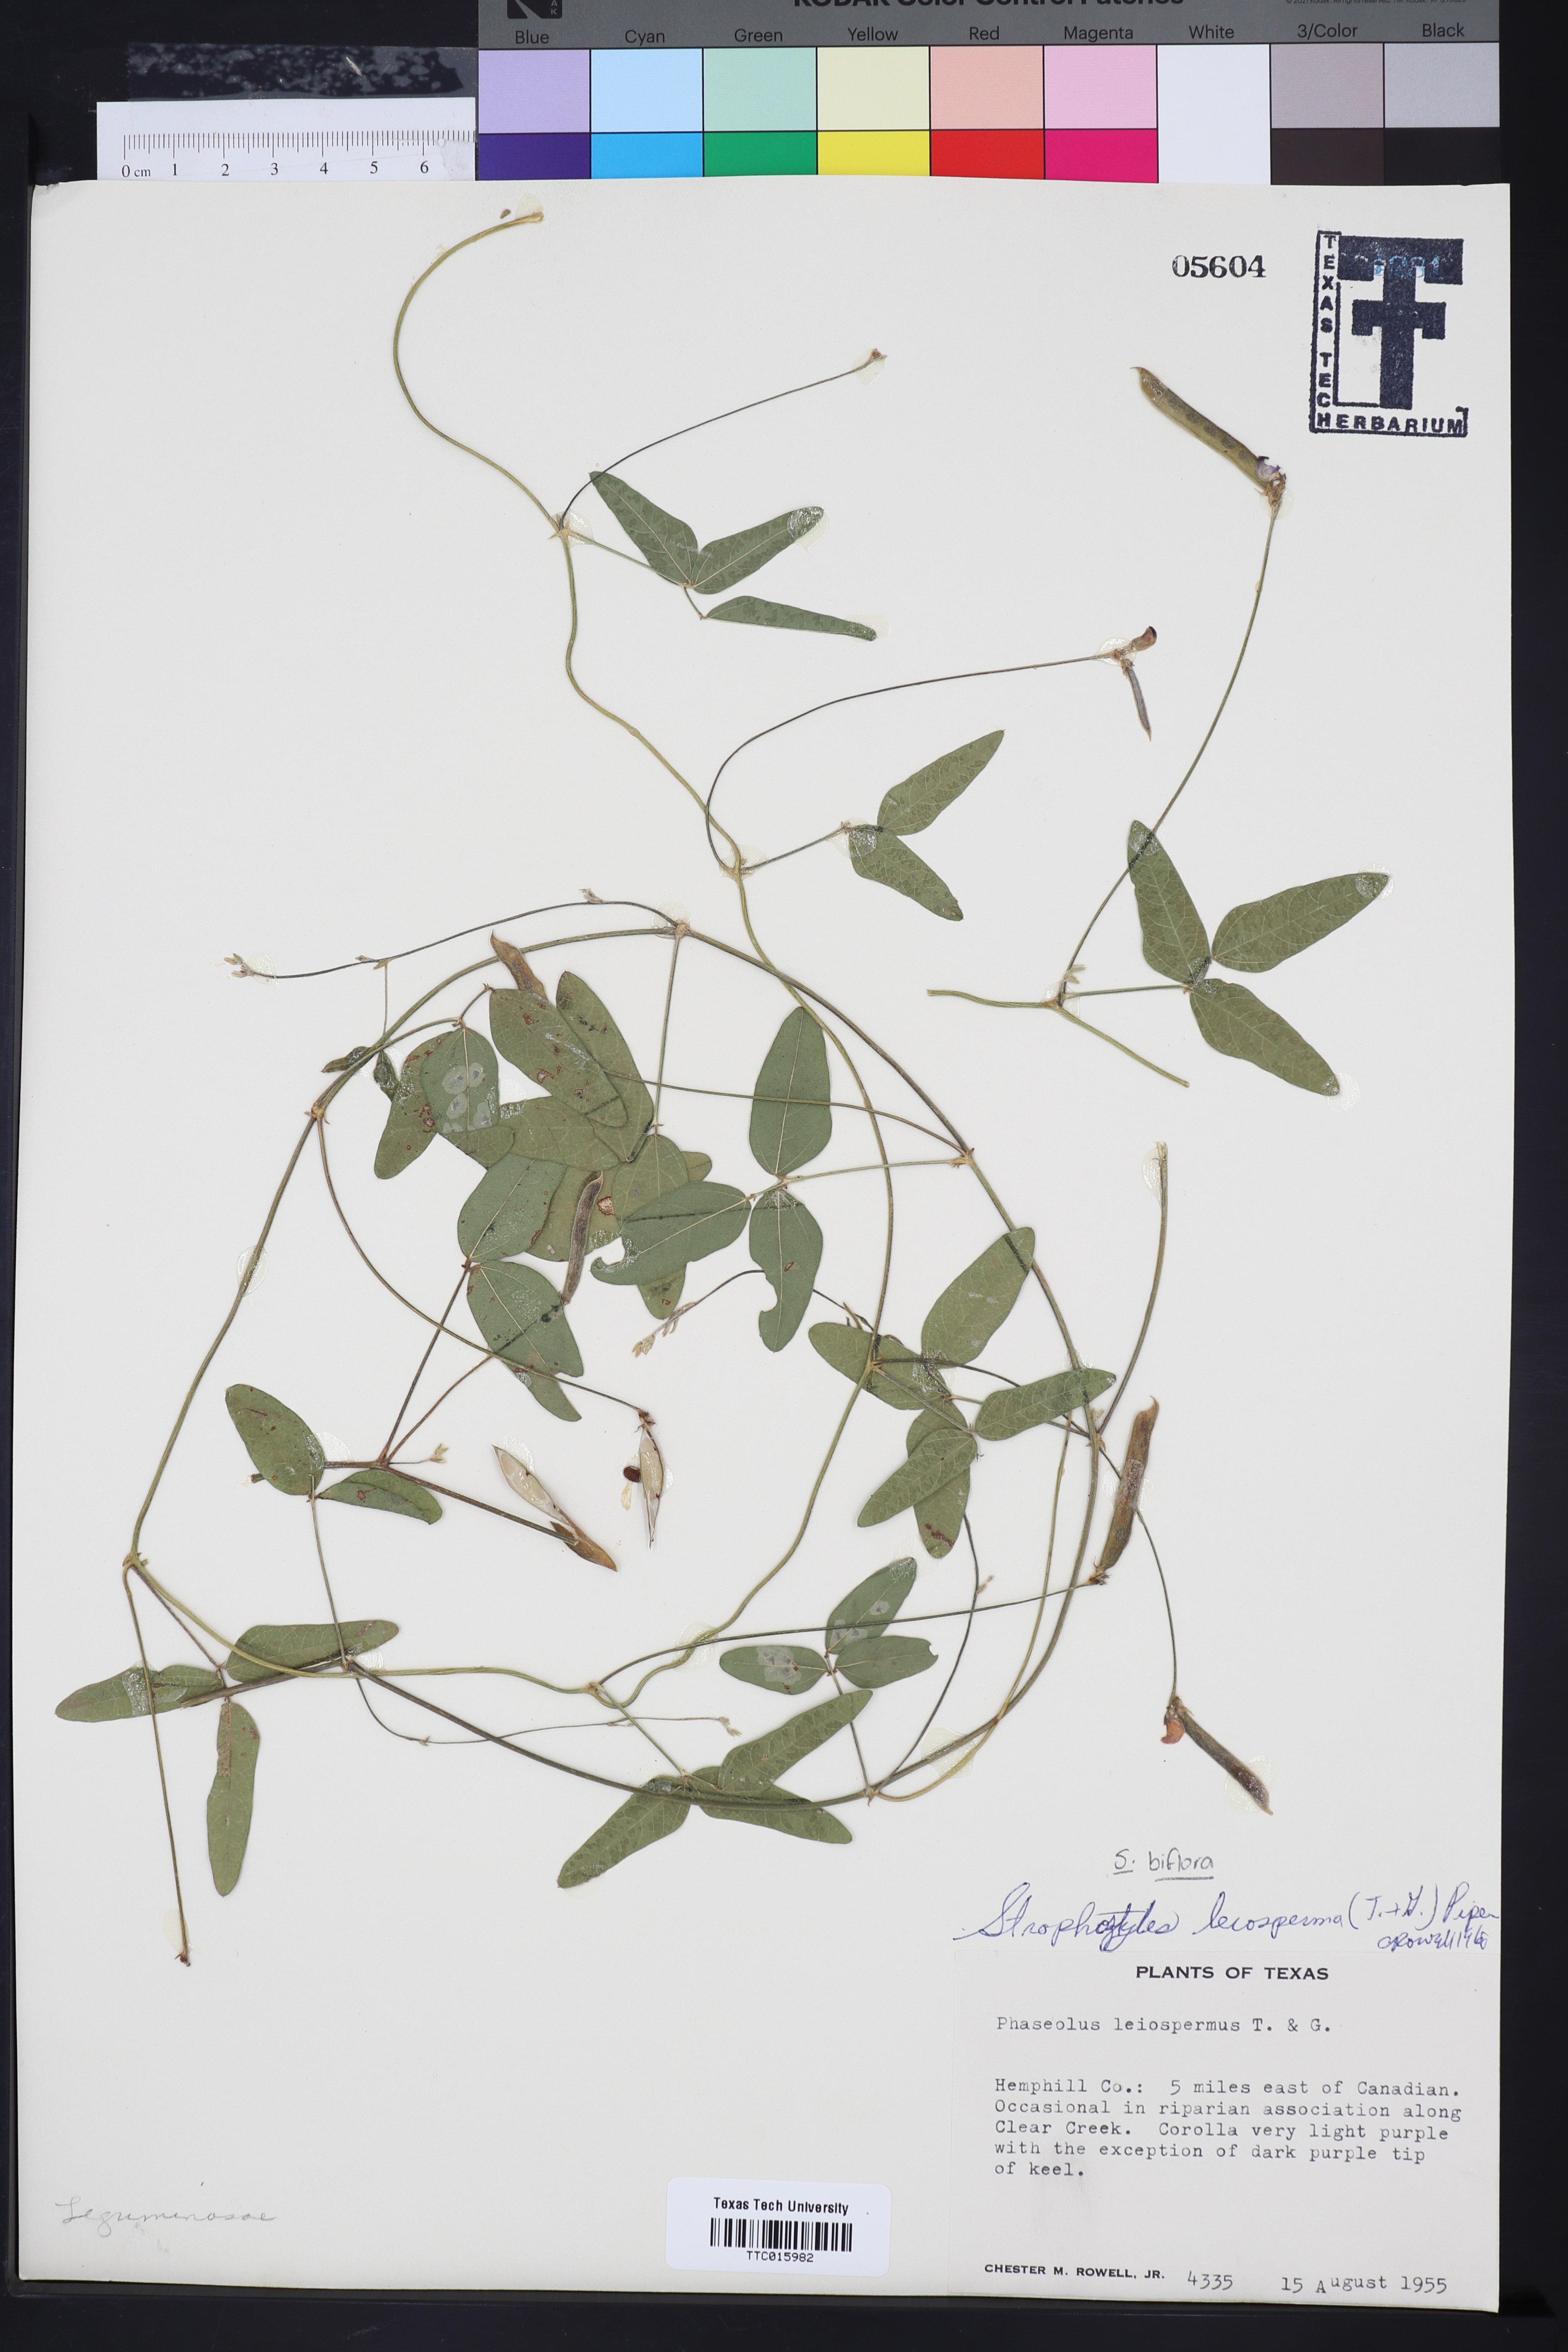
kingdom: Plantae
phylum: Tracheophyta
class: Magnoliopsida
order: Fabales
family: Fabaceae
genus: Strophostyles
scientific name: Strophostyles leiosperma
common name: Smooth-seed wild bean
